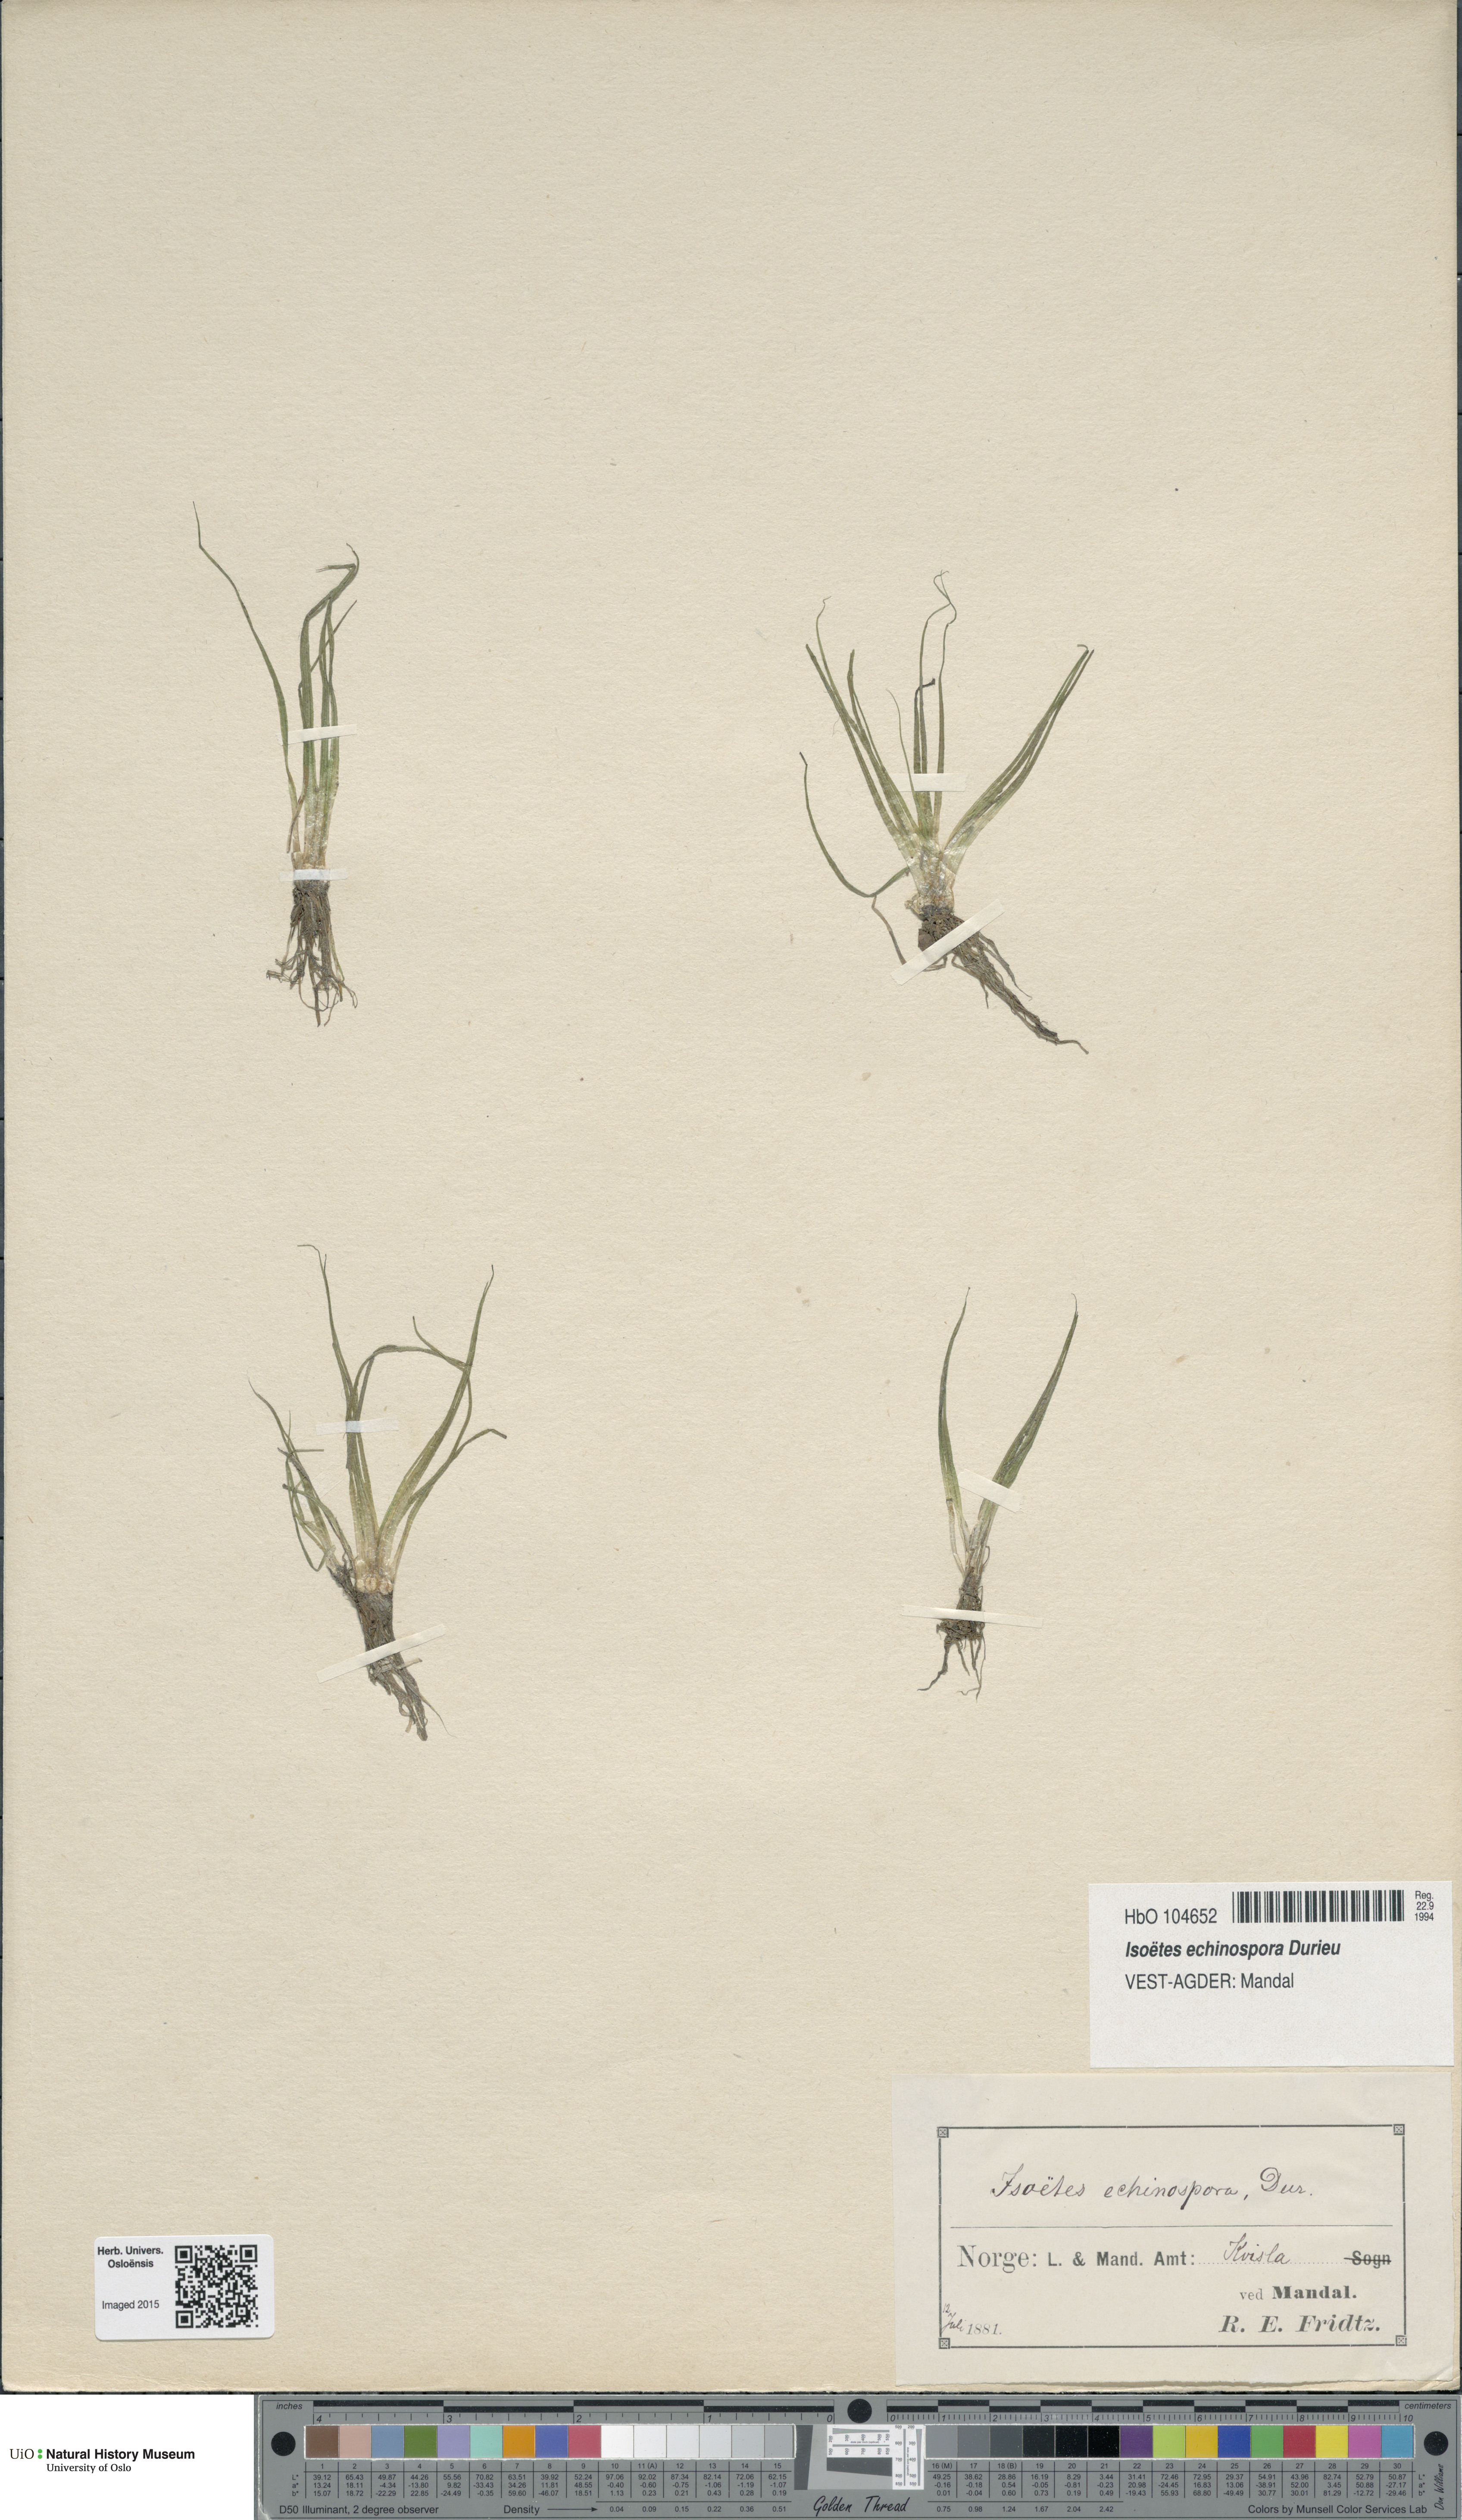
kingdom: Plantae
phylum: Tracheophyta
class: Lycopodiopsida
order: Isoetales
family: Isoetaceae
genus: Isoetes
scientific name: Isoetes echinospora
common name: Spring quillwort
